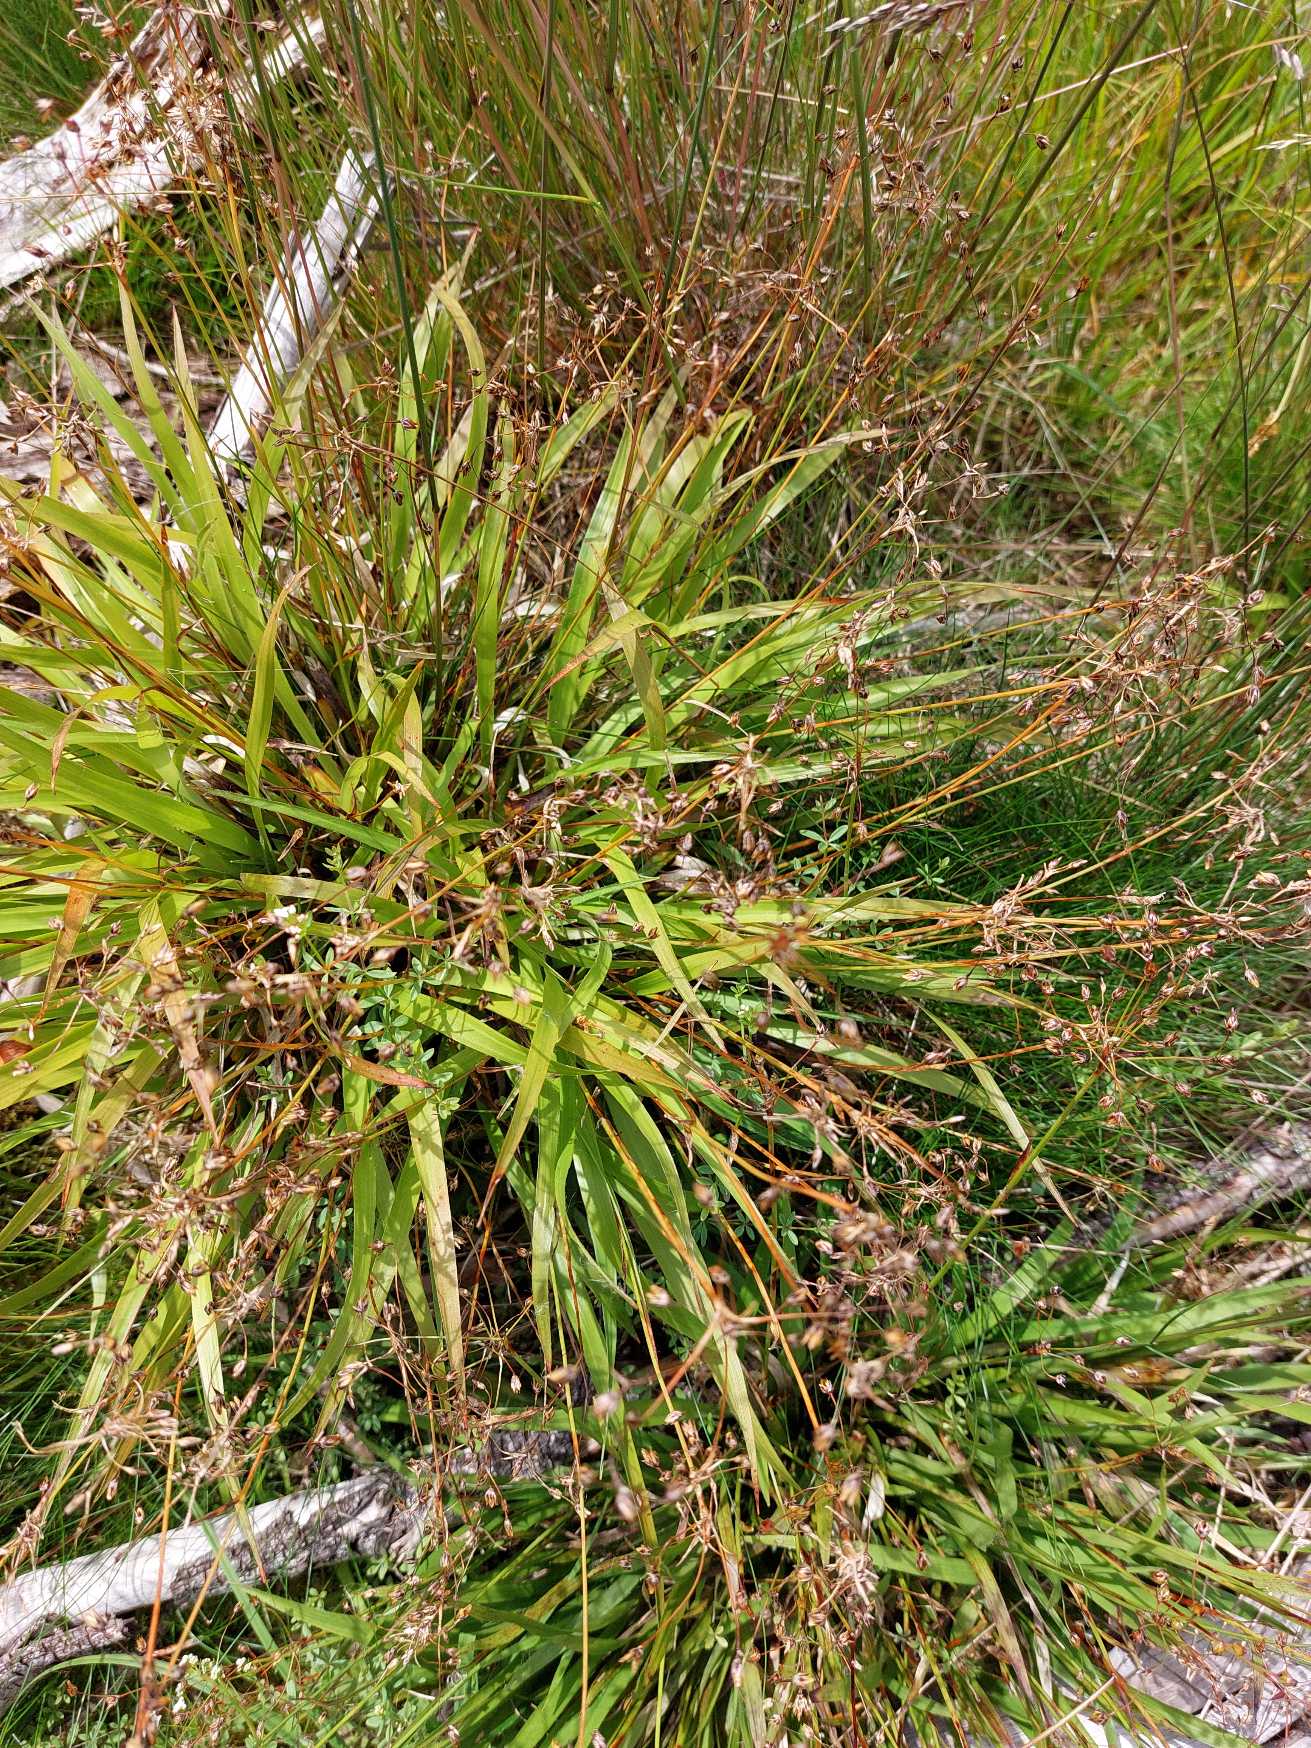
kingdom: Plantae
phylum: Tracheophyta
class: Liliopsida
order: Poales
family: Juncaceae
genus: Luzula
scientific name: Luzula pilosa
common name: Håret frytle
